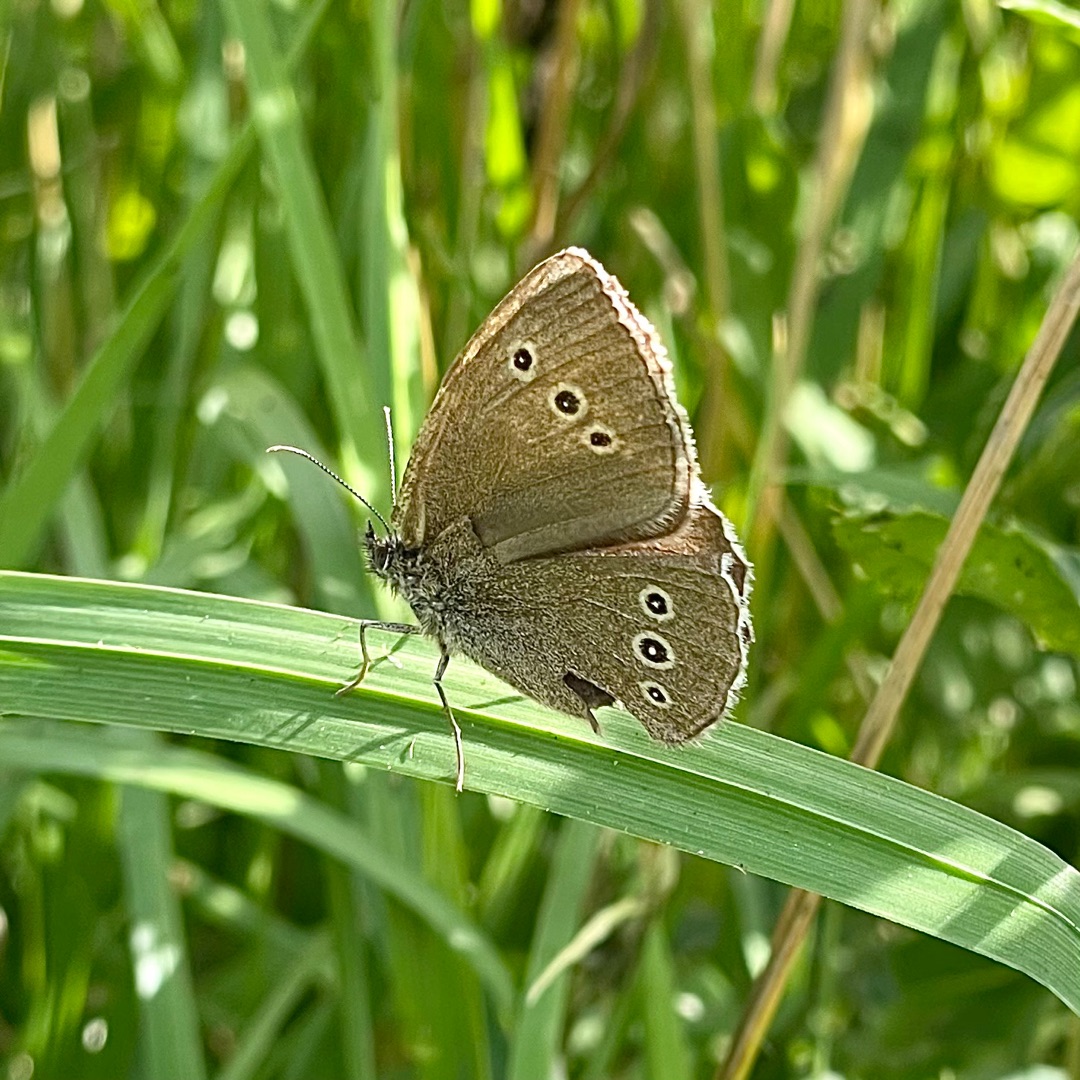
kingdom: Animalia
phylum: Arthropoda
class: Insecta
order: Lepidoptera
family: Nymphalidae
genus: Aphantopus
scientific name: Aphantopus hyperantus
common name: Engrandøje
